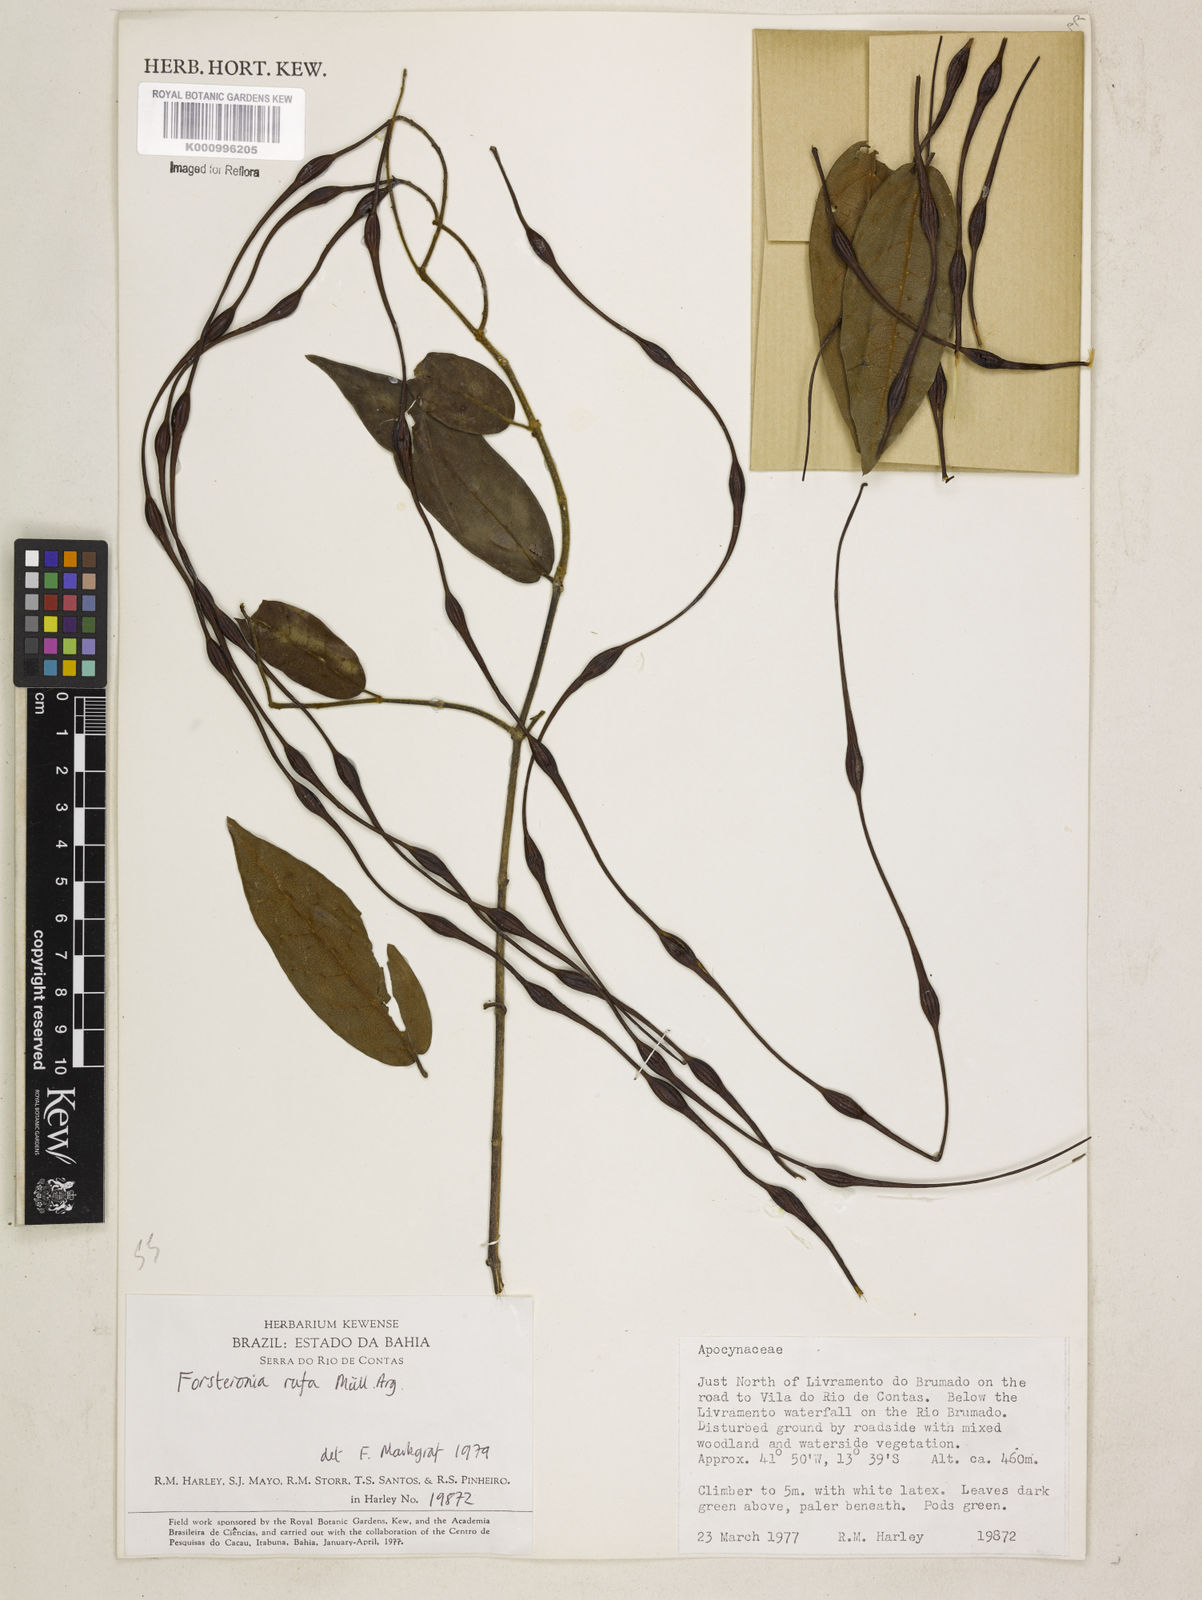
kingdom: Plantae
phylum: Tracheophyta
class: Magnoliopsida
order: Gentianales
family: Apocynaceae
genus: Forsteronia
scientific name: Forsteronia
